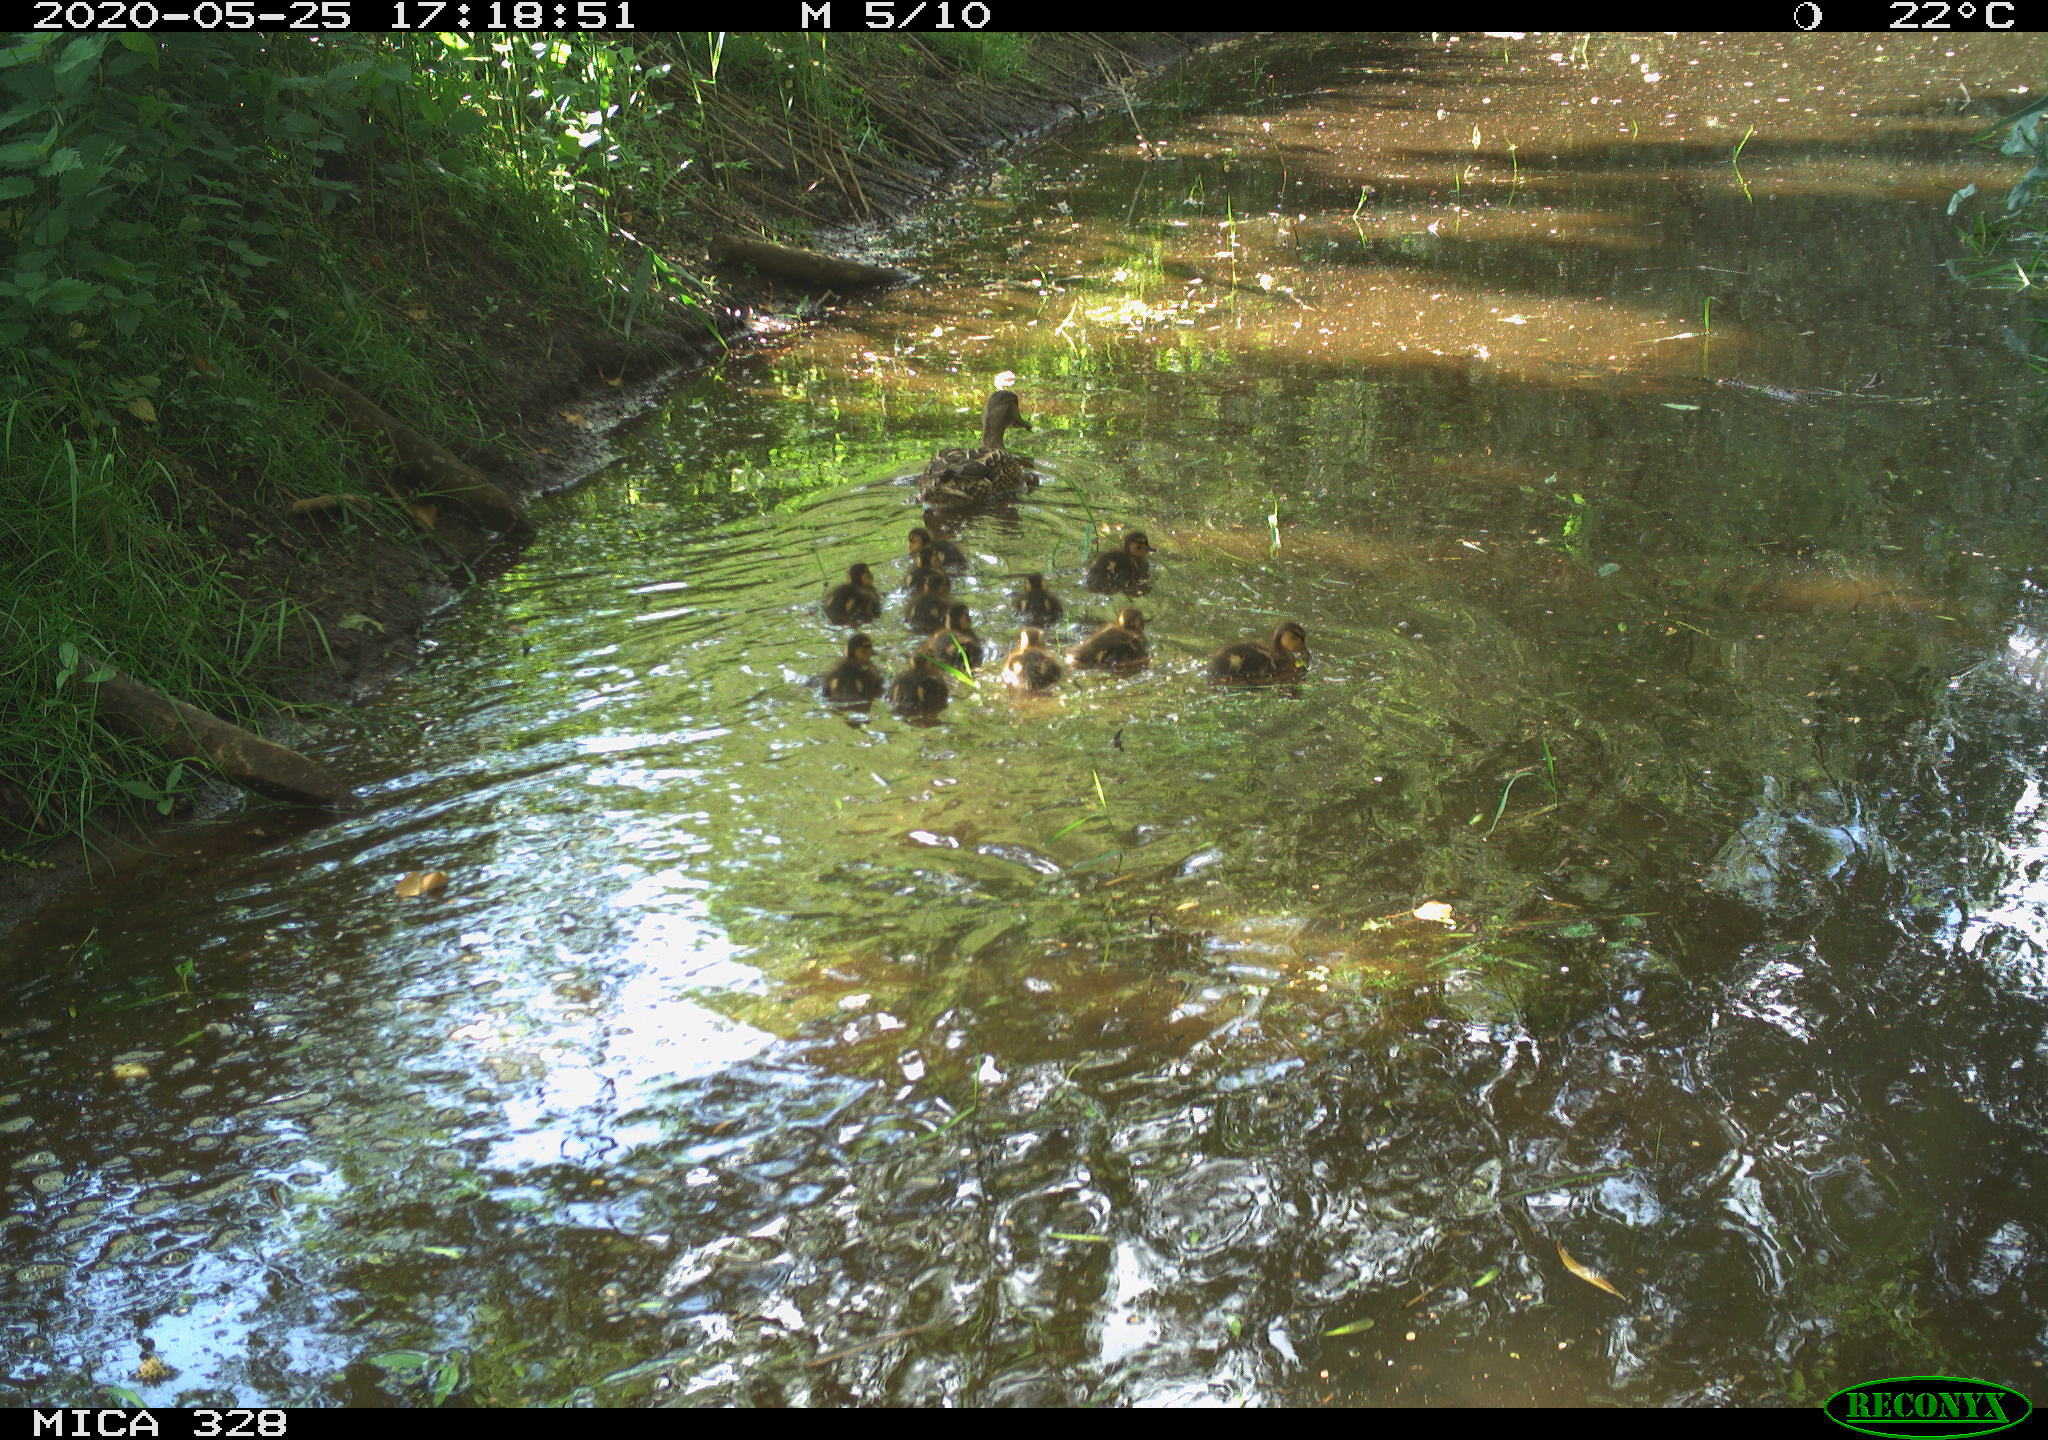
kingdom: Animalia
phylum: Chordata
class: Aves
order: Anseriformes
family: Anatidae
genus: Anas
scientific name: Anas platyrhynchos
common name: Mallard
